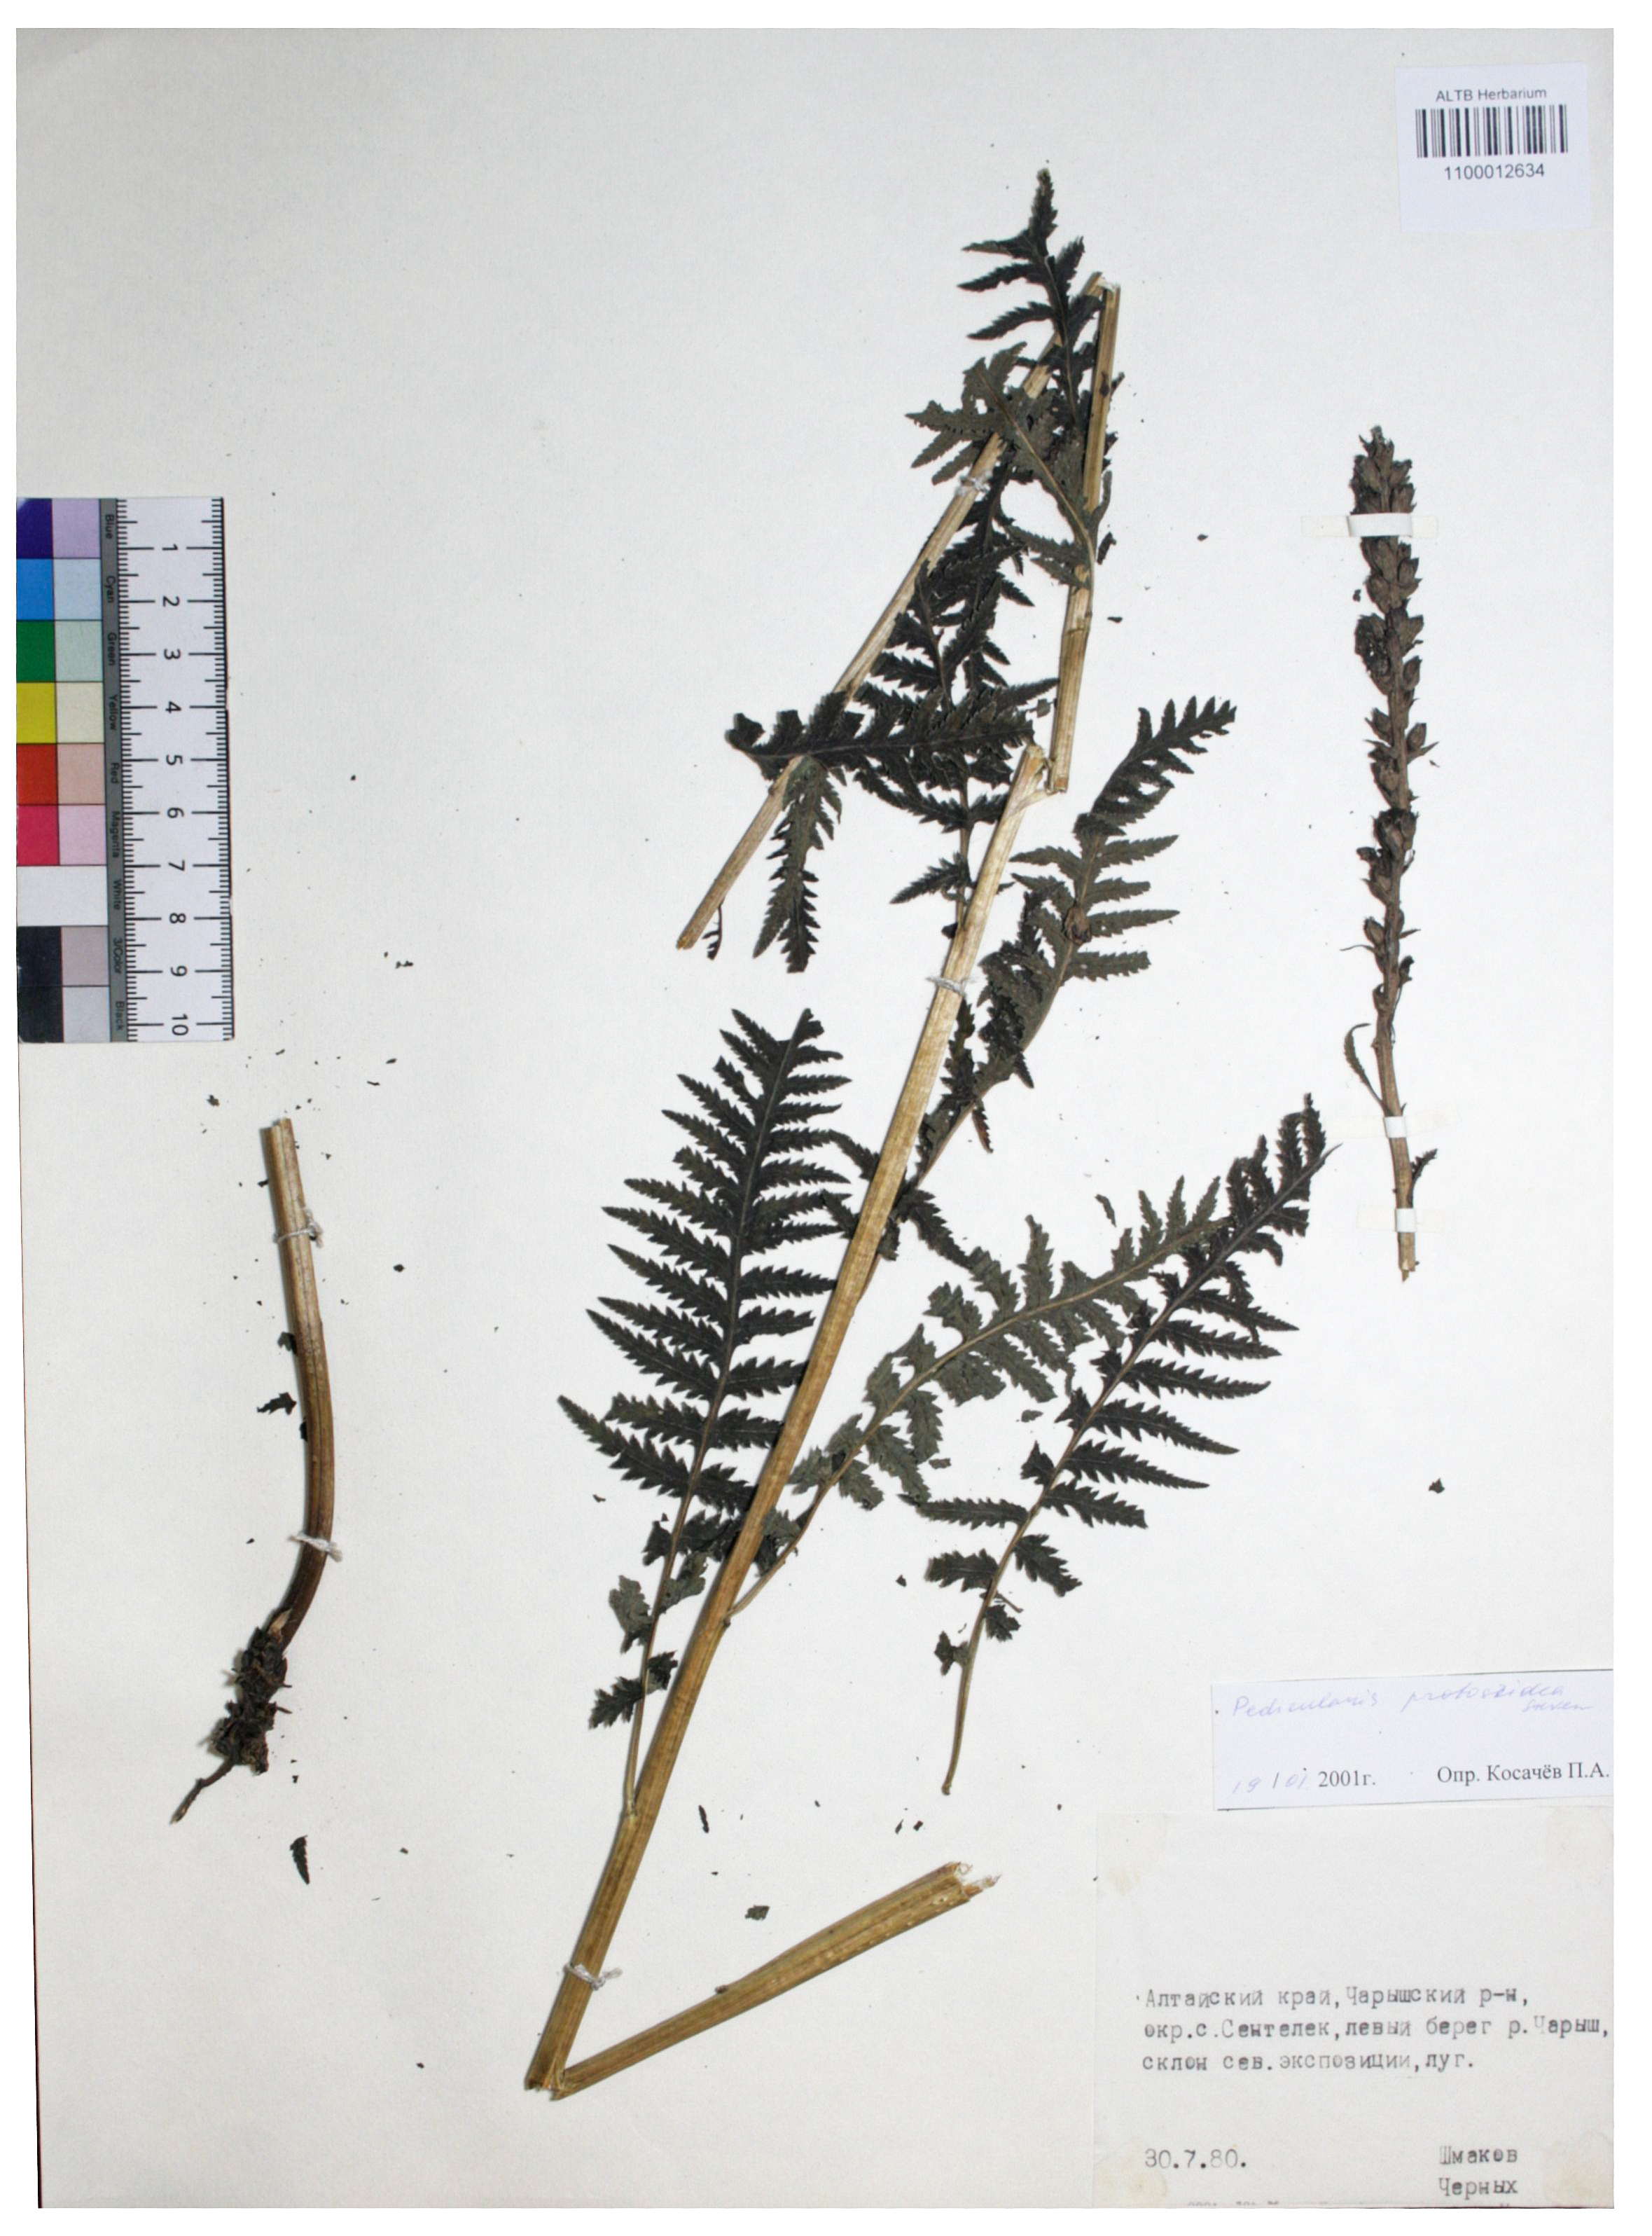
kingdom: Plantae
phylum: Tracheophyta
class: Magnoliopsida
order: Lamiales
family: Orobanchaceae
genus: Pedicularis
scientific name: Pedicularis proboscidea
